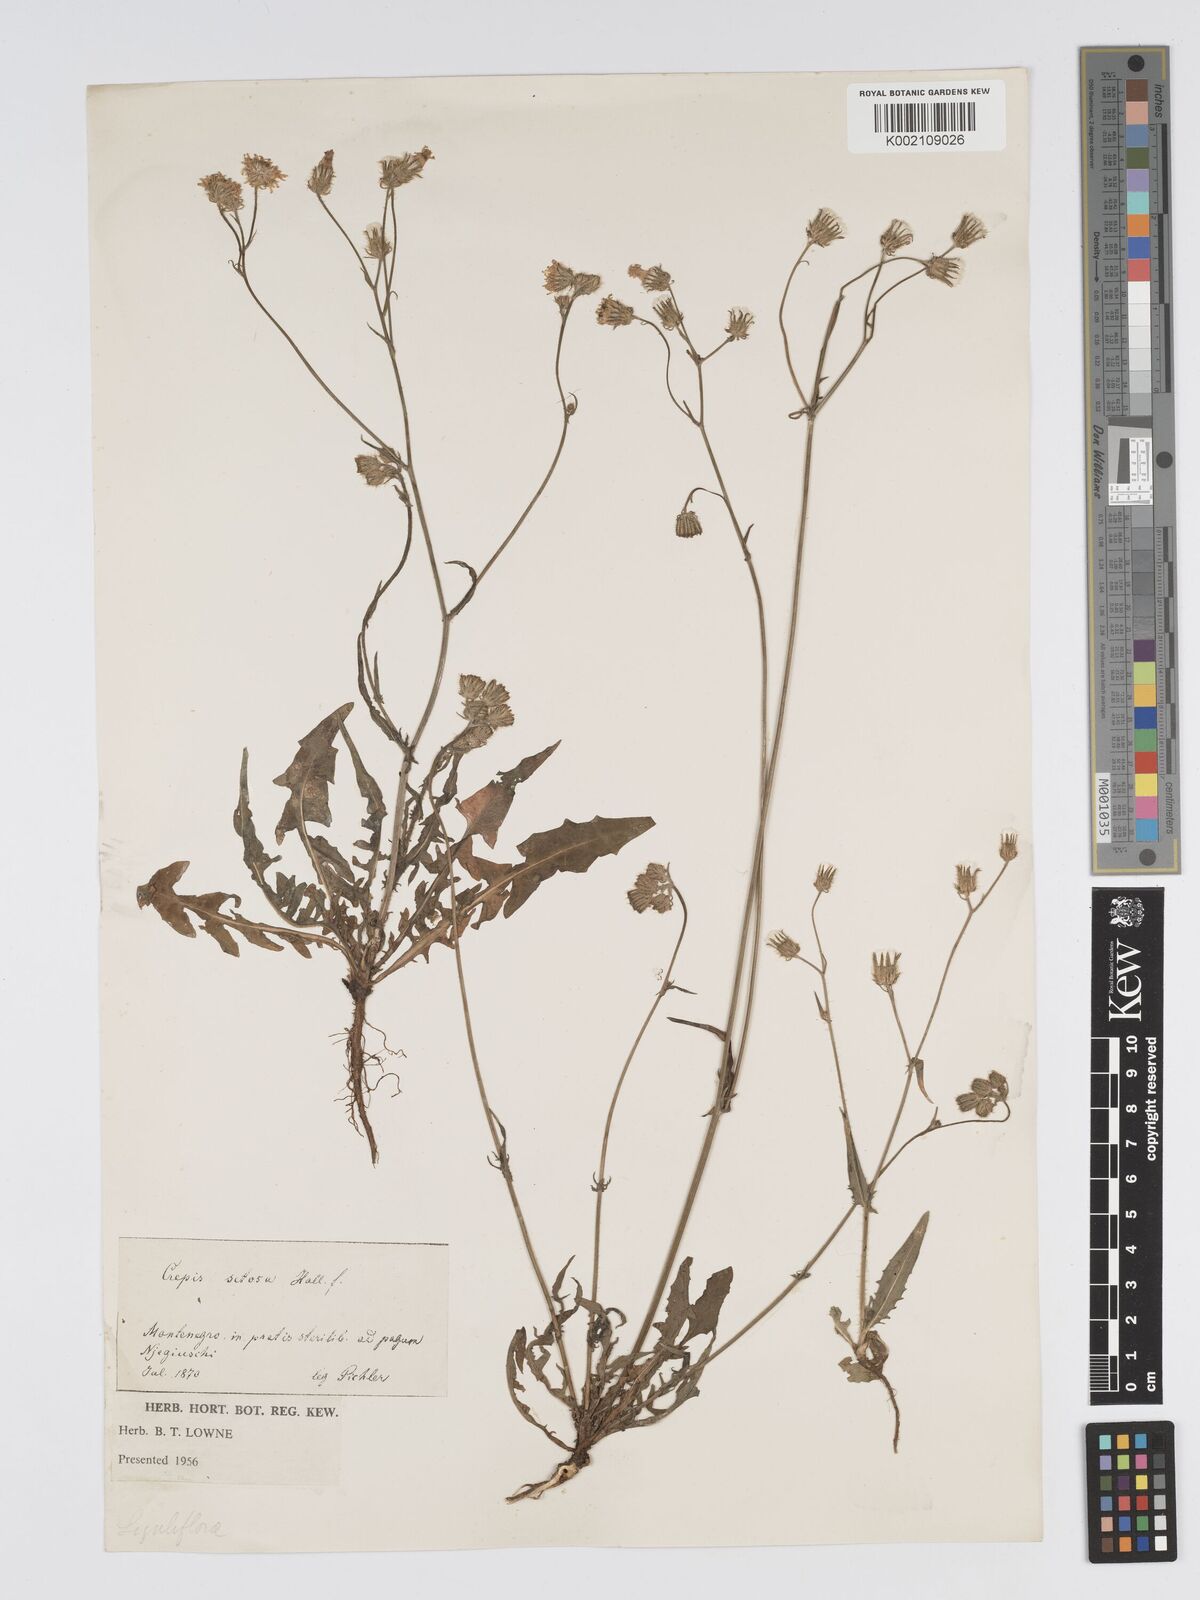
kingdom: Plantae
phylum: Tracheophyta
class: Magnoliopsida
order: Asterales
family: Asteraceae
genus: Crepis
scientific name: Crepis setosa
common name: Bristly hawk's-beard
